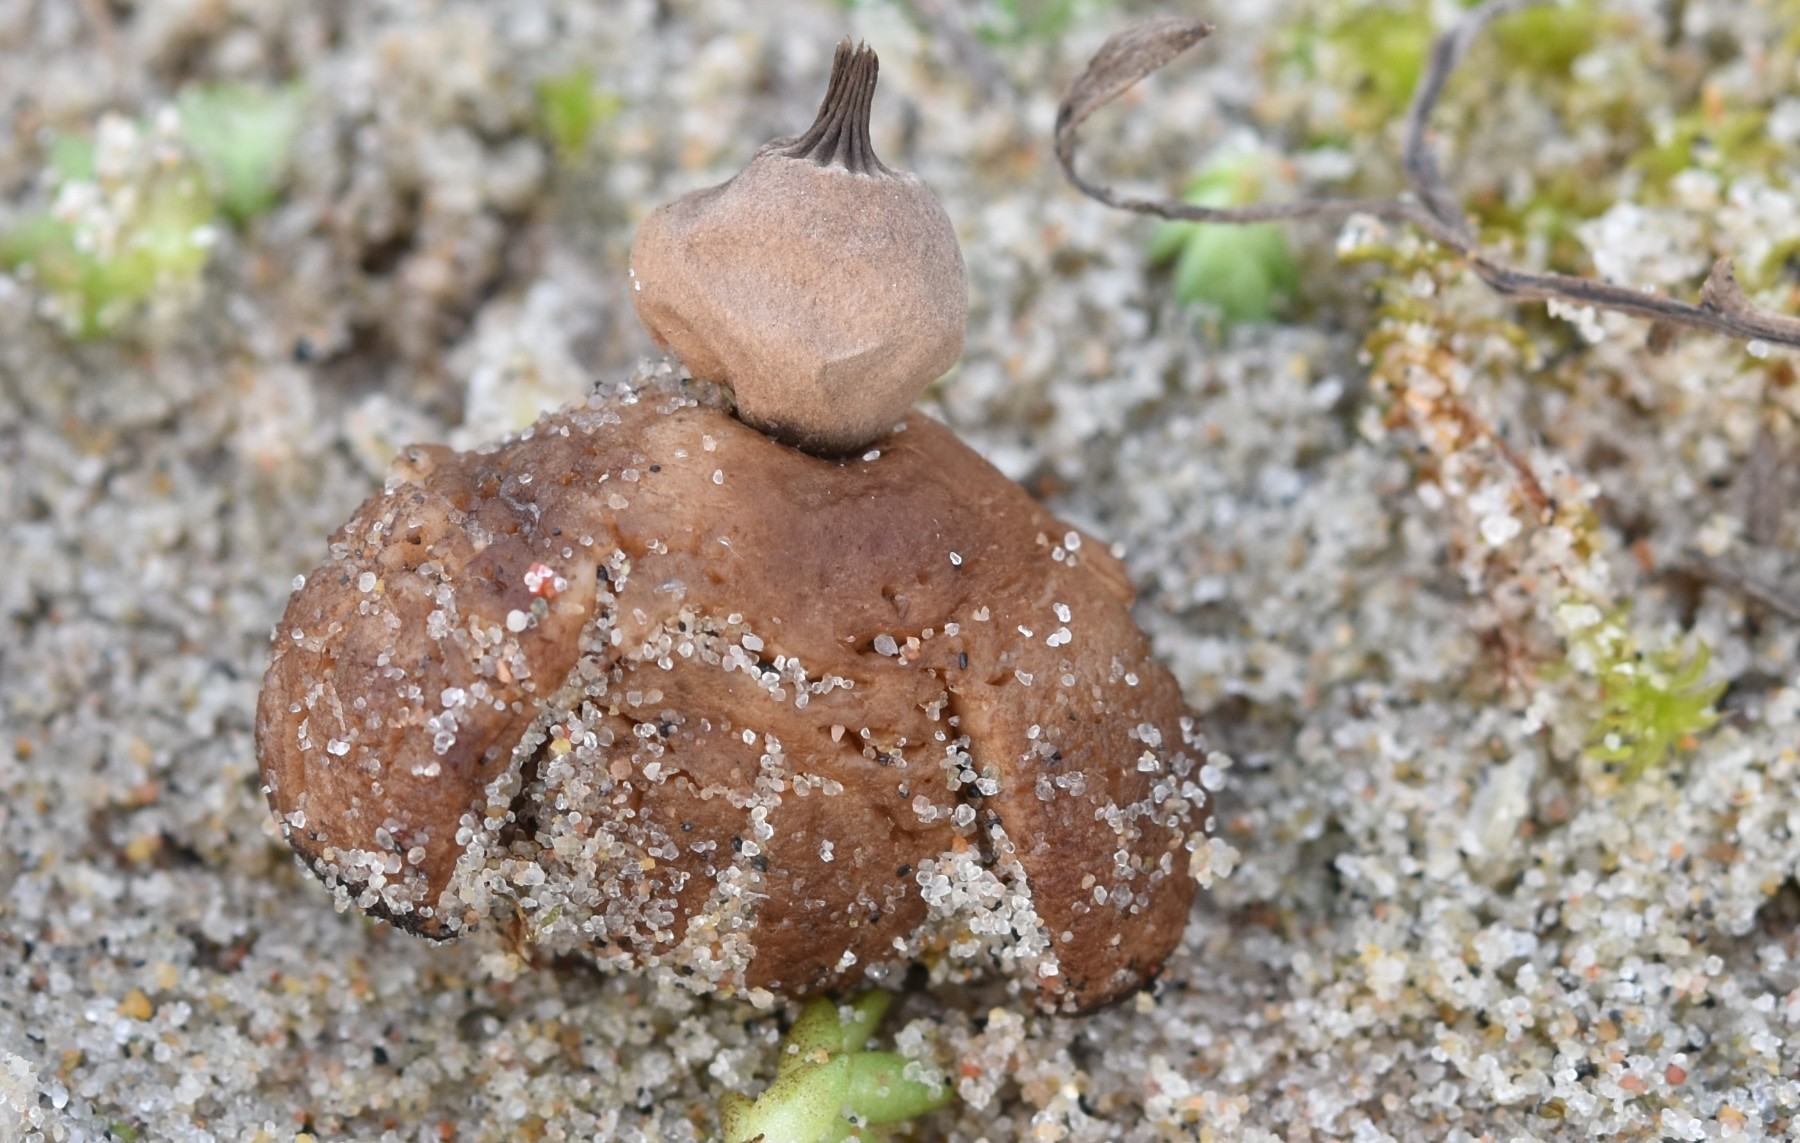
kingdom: Fungi
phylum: Basidiomycota
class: Agaricomycetes
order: Geastrales
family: Geastraceae
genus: Geastrum
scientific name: Geastrum striatum
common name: dværg-stjernebold
